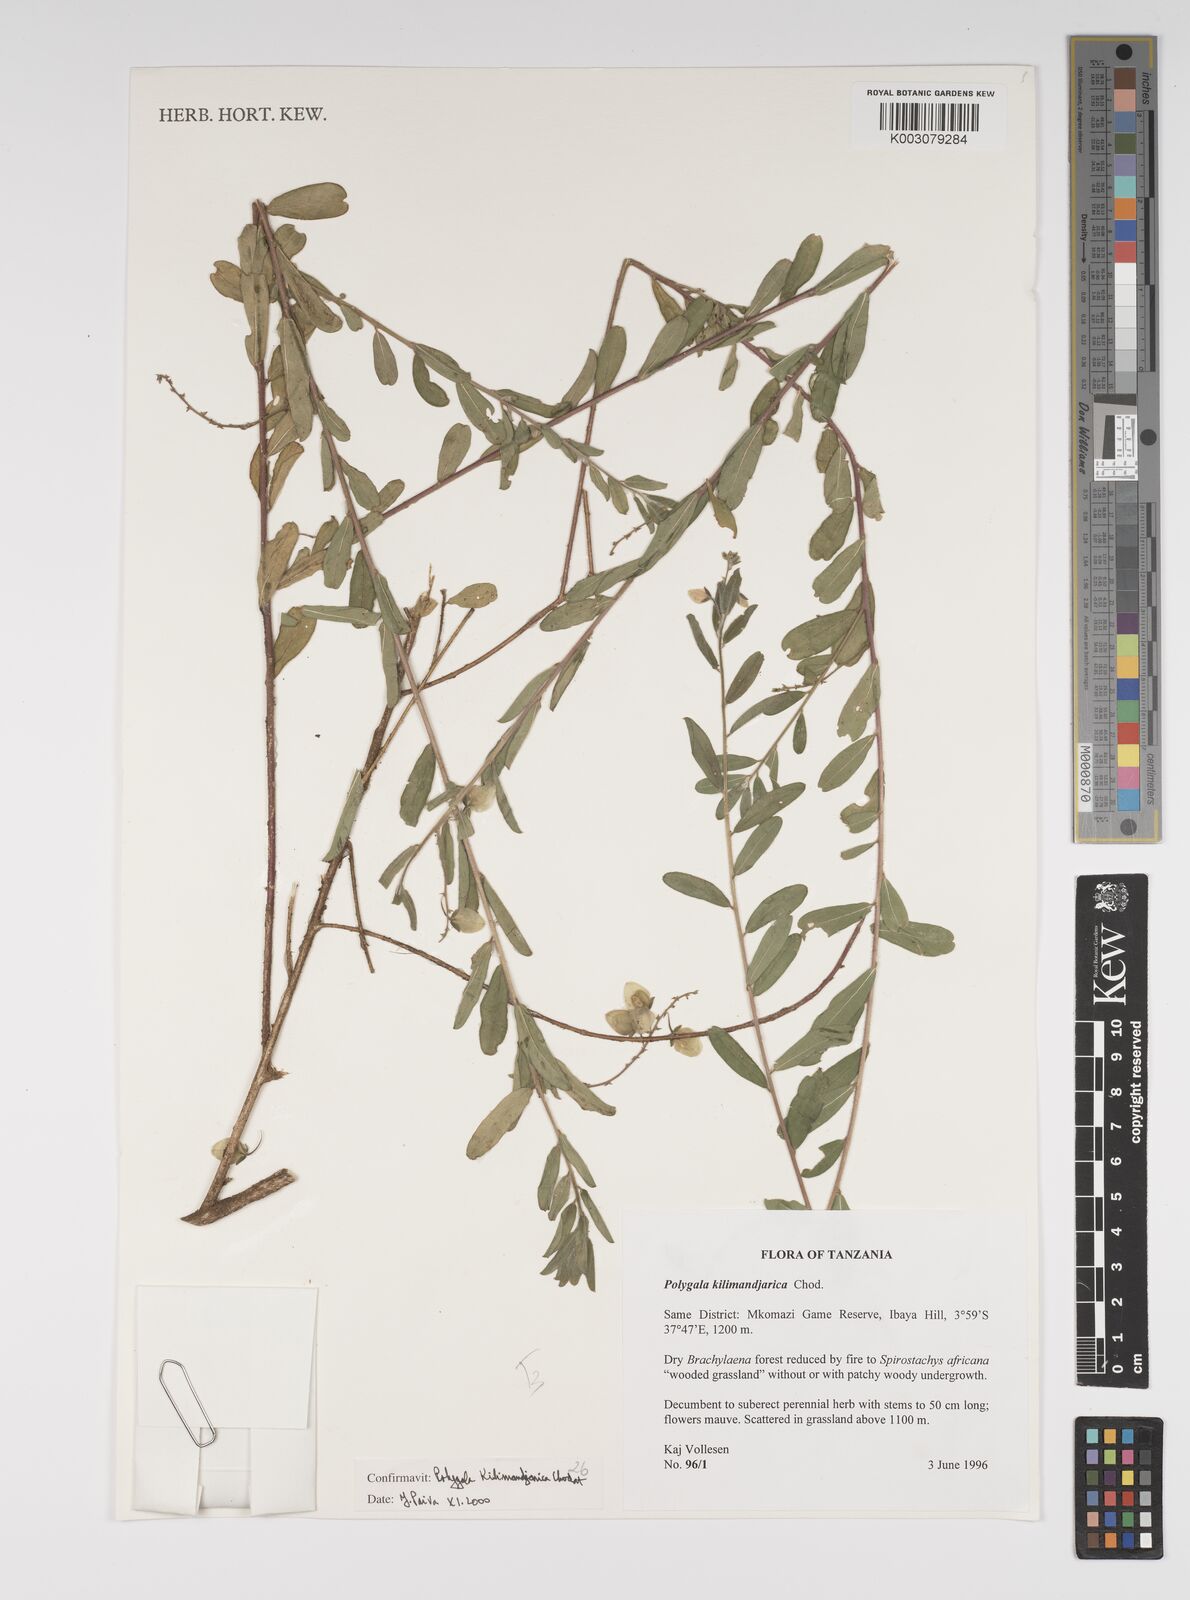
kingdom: Plantae
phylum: Tracheophyta
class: Magnoliopsida
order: Fabales
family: Polygalaceae
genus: Polygala
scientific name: Polygala kilimandjarica
